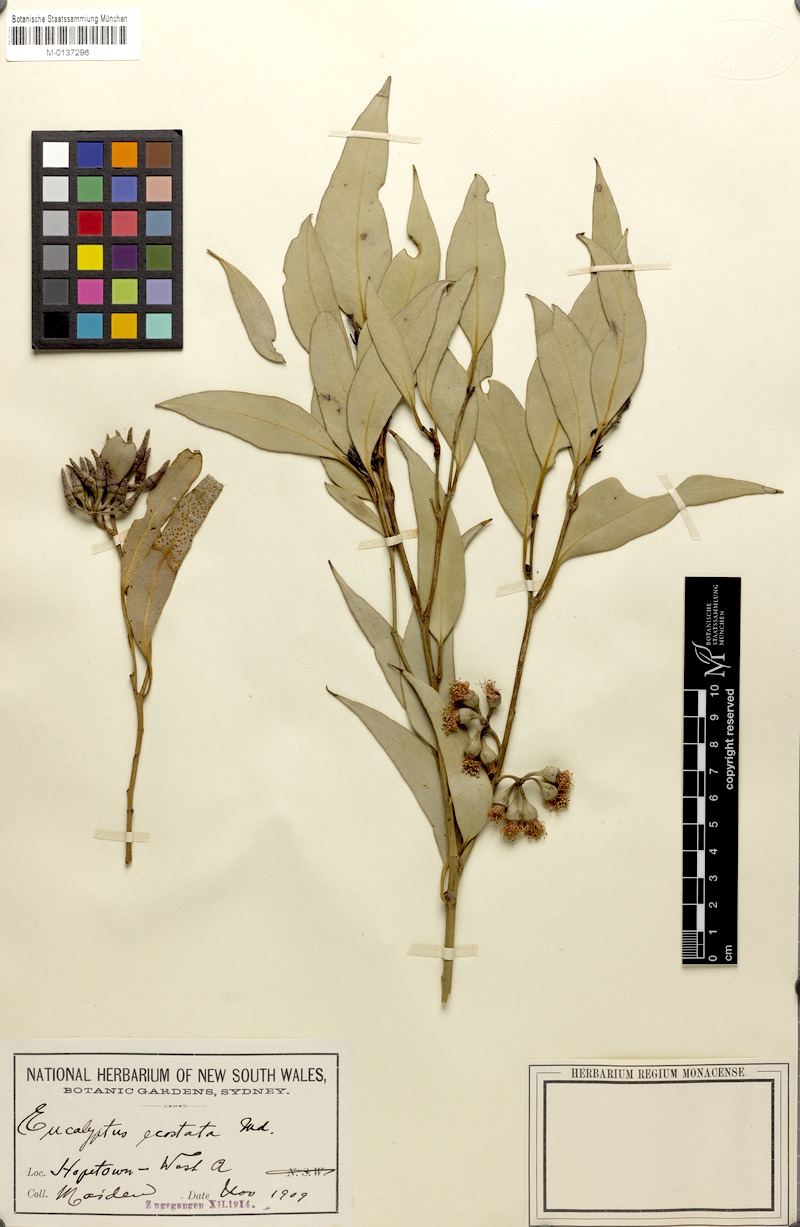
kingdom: Plantae
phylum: Tracheophyta
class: Magnoliopsida
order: Myrtales
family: Myrtaceae
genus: Eucalyptus
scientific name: Eucalyptus falcata
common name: Silver mallet
